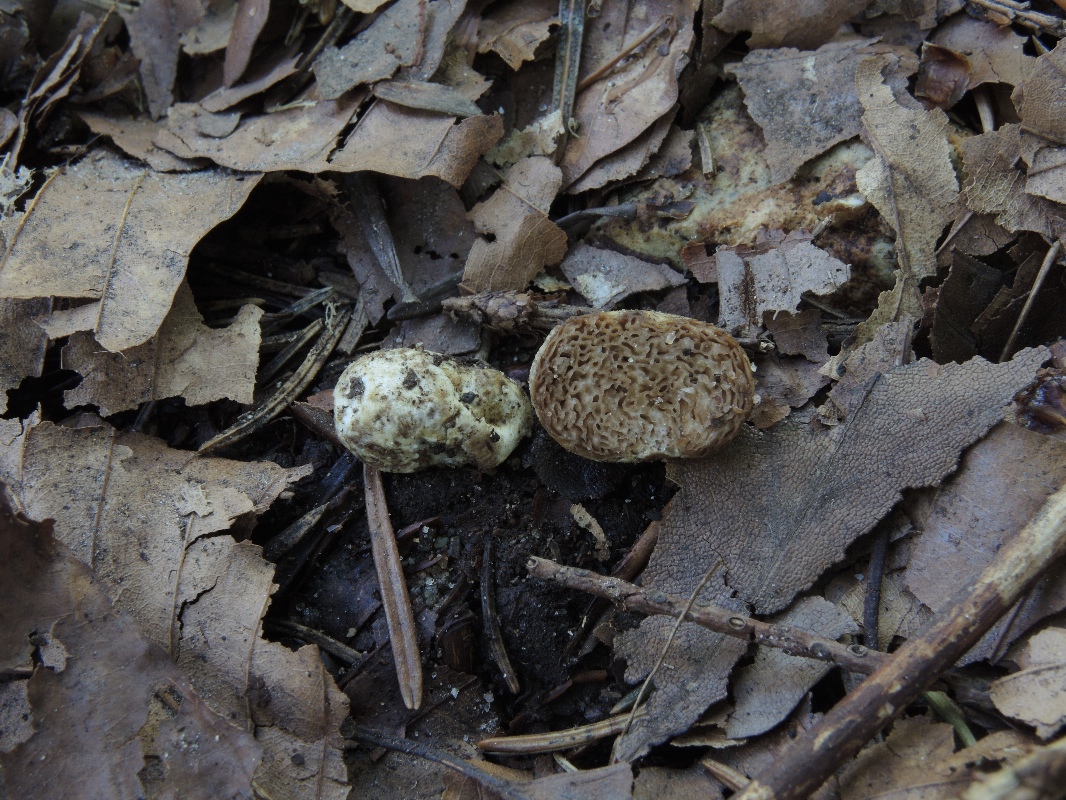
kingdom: Fungi
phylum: Basidiomycota
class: Agaricomycetes
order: Agaricales
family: Hymenogastraceae
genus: Hymenogaster
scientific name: Hymenogaster
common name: knoldtrøffel
